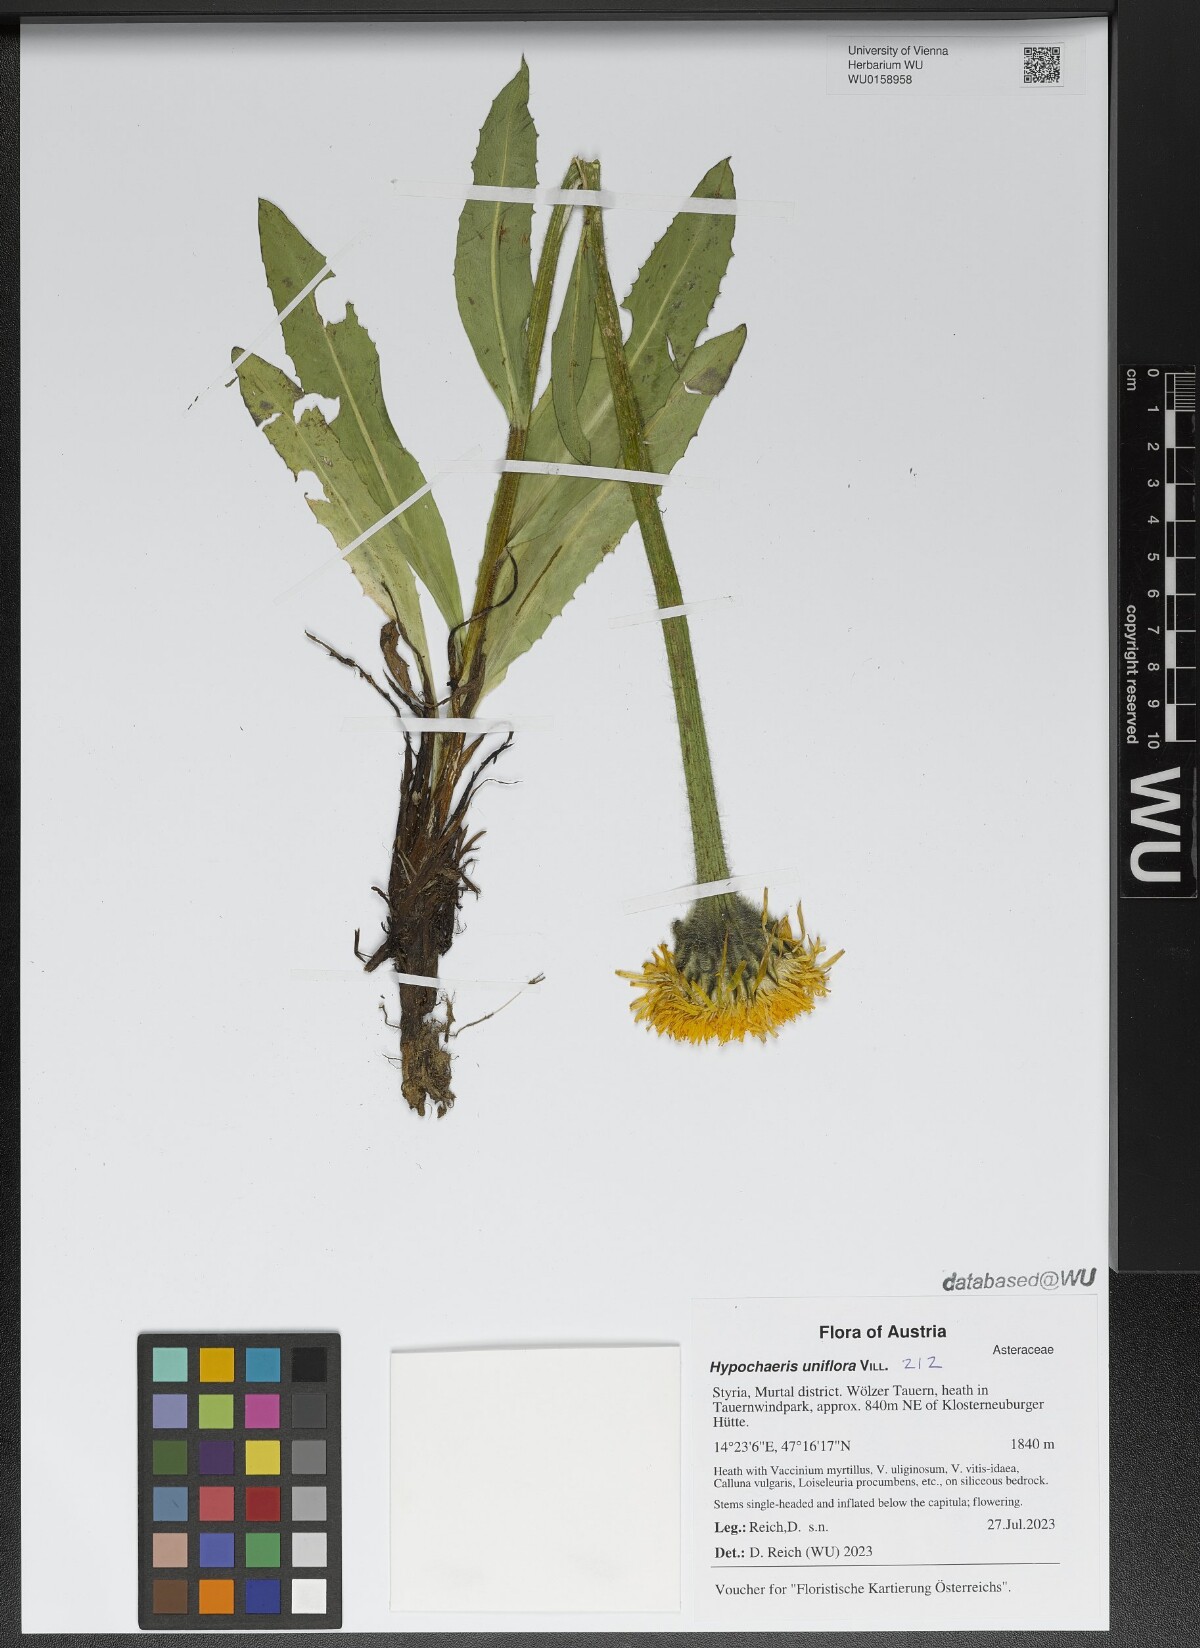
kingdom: Plantae
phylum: Tracheophyta
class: Magnoliopsida
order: Asterales
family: Asteraceae
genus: Trommsdorffia
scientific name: Trommsdorffia uniflora
